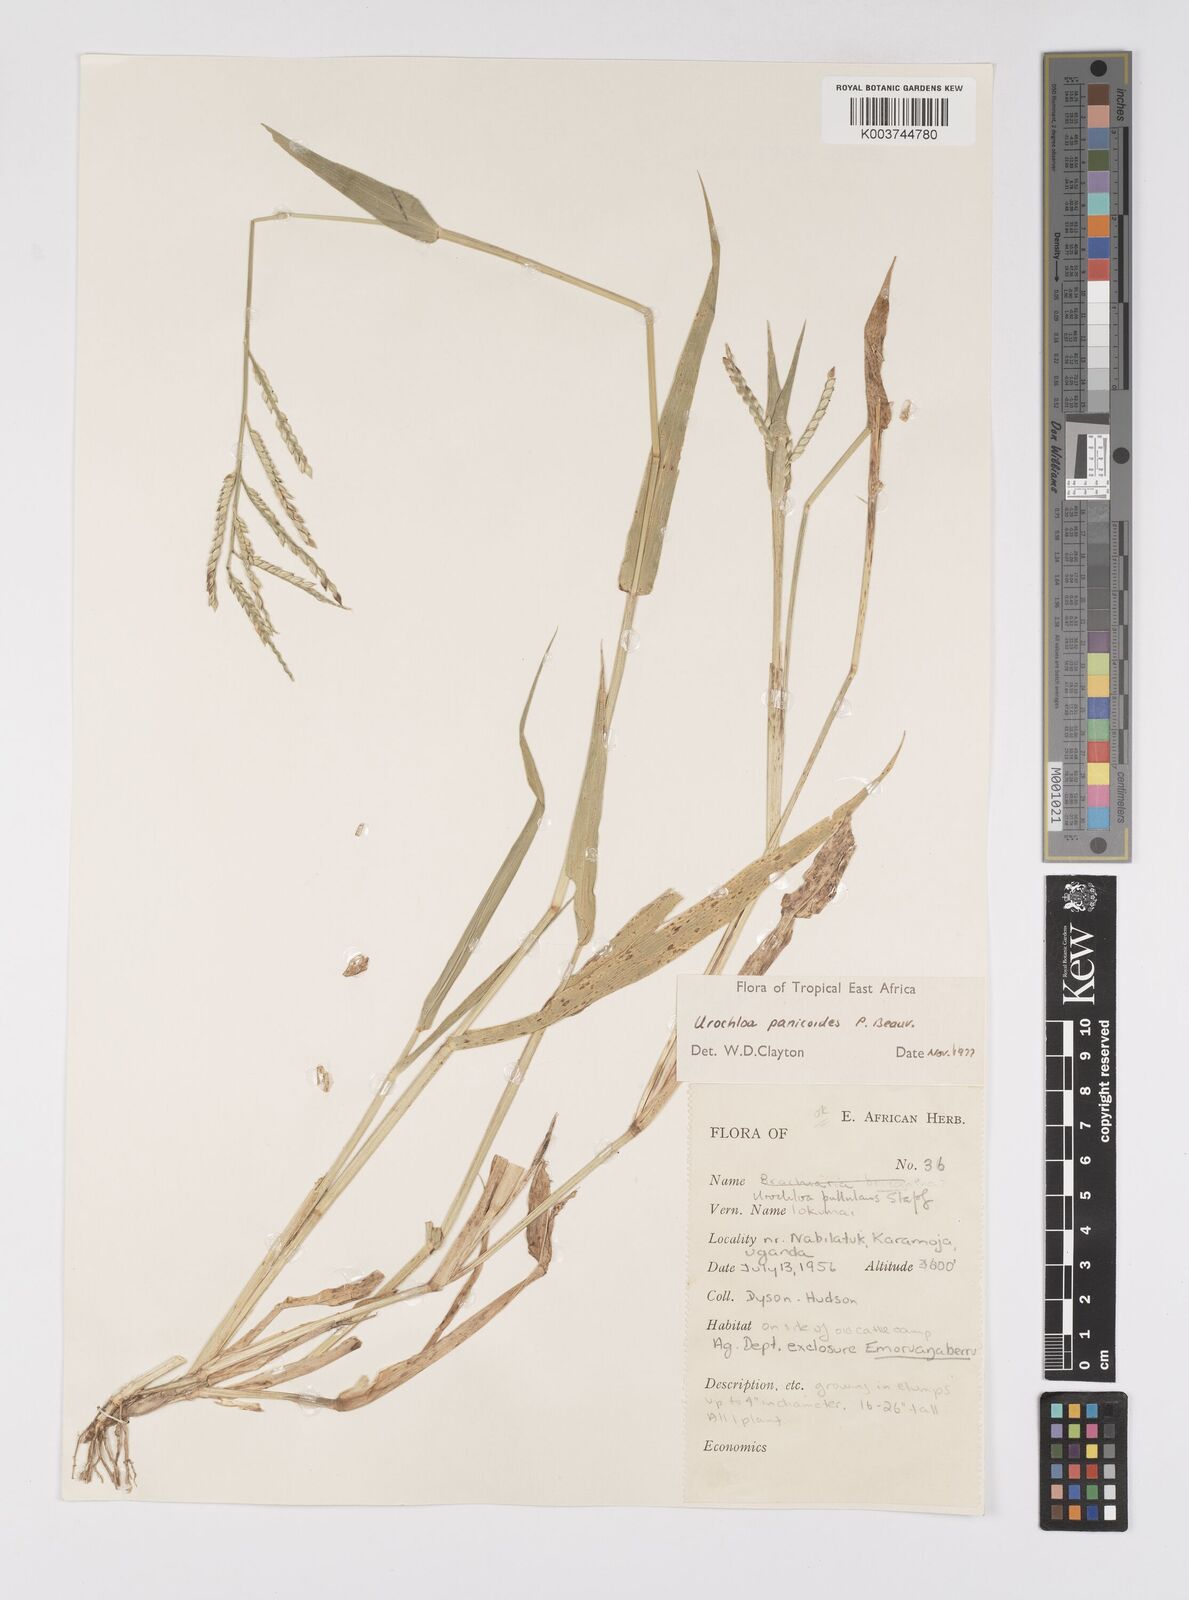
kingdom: Plantae
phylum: Tracheophyta
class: Liliopsida
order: Poales
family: Poaceae
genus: Urochloa
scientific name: Urochloa panicoides
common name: Sharp-flowered signal-grass
